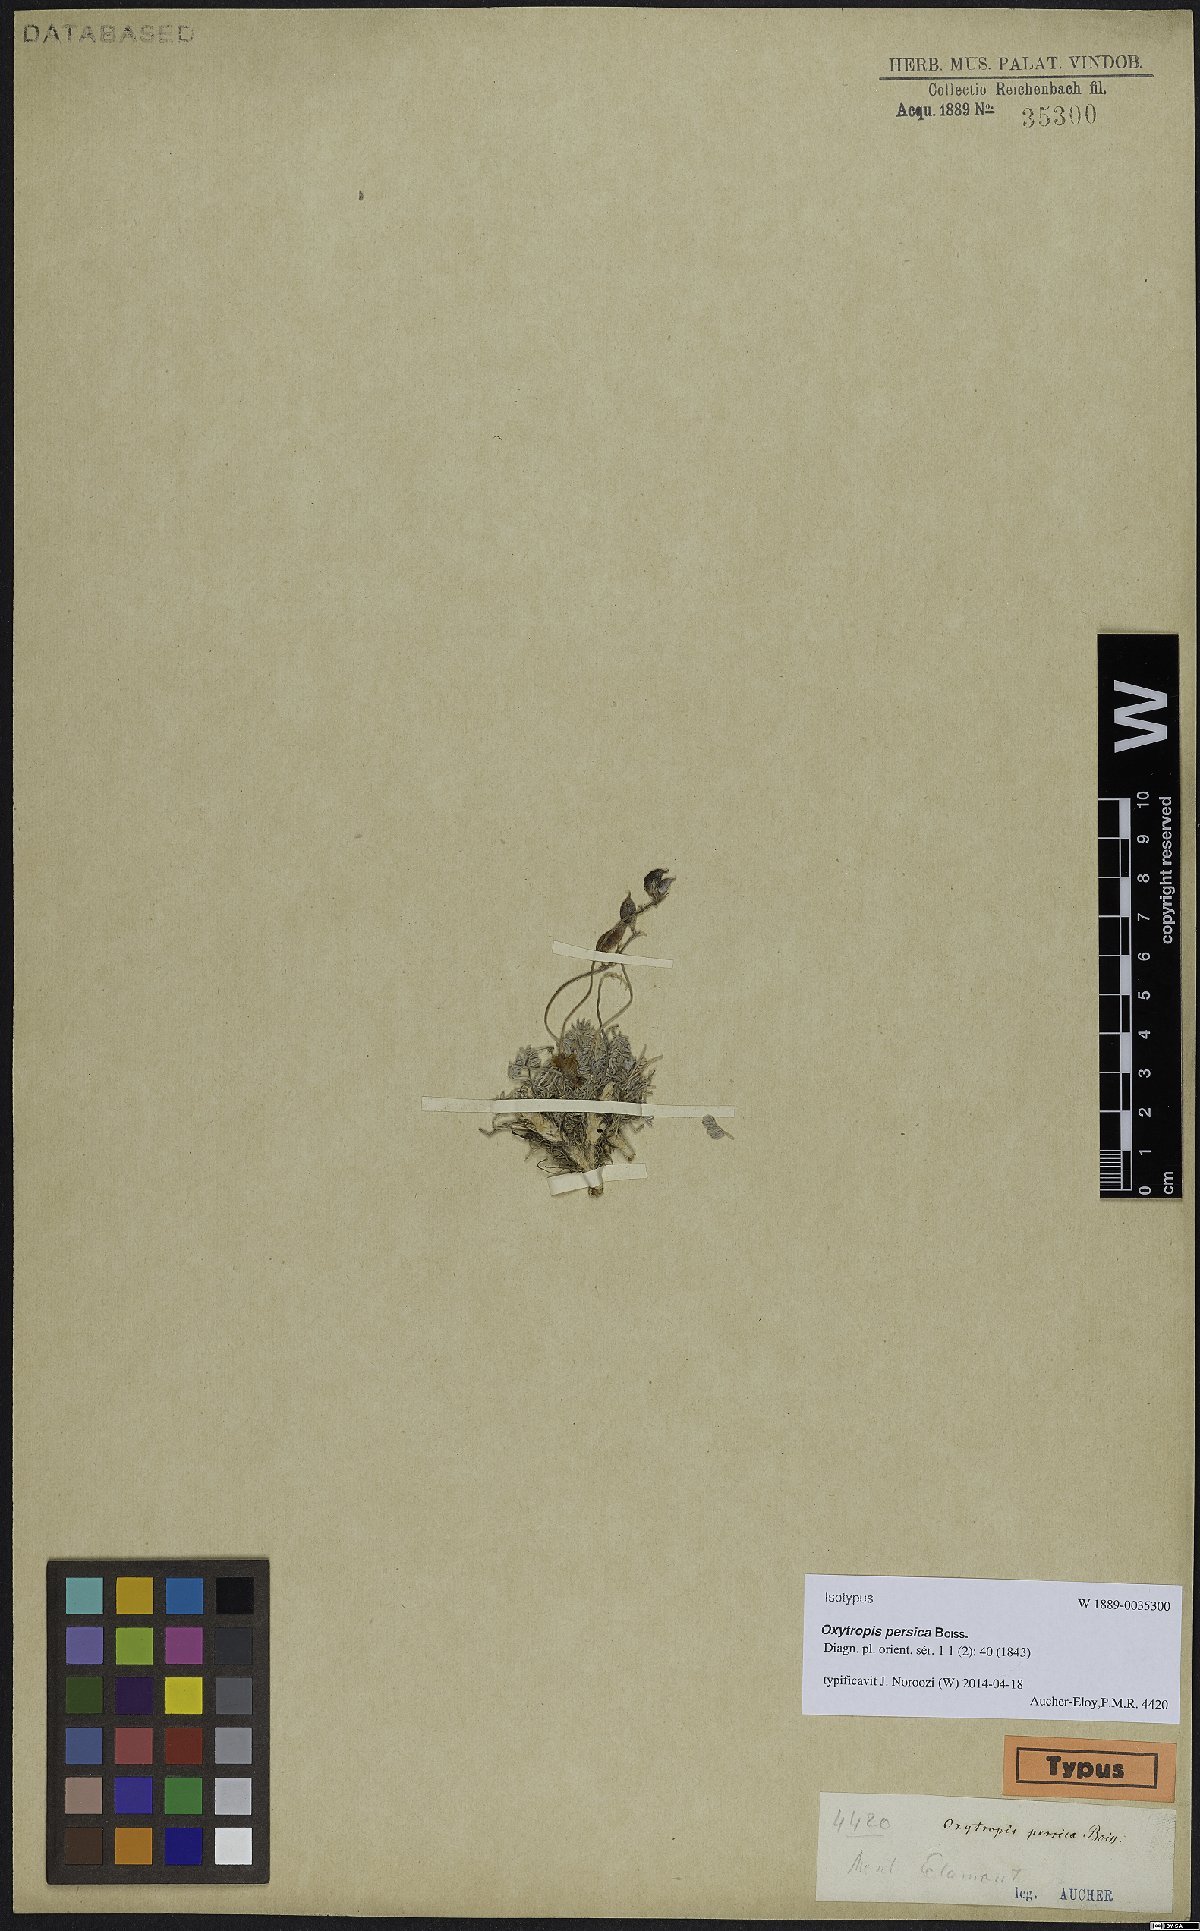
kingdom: Plantae
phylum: Tracheophyta
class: Magnoliopsida
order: Fabales
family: Fabaceae
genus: Oxytropis
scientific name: Oxytropis persica
